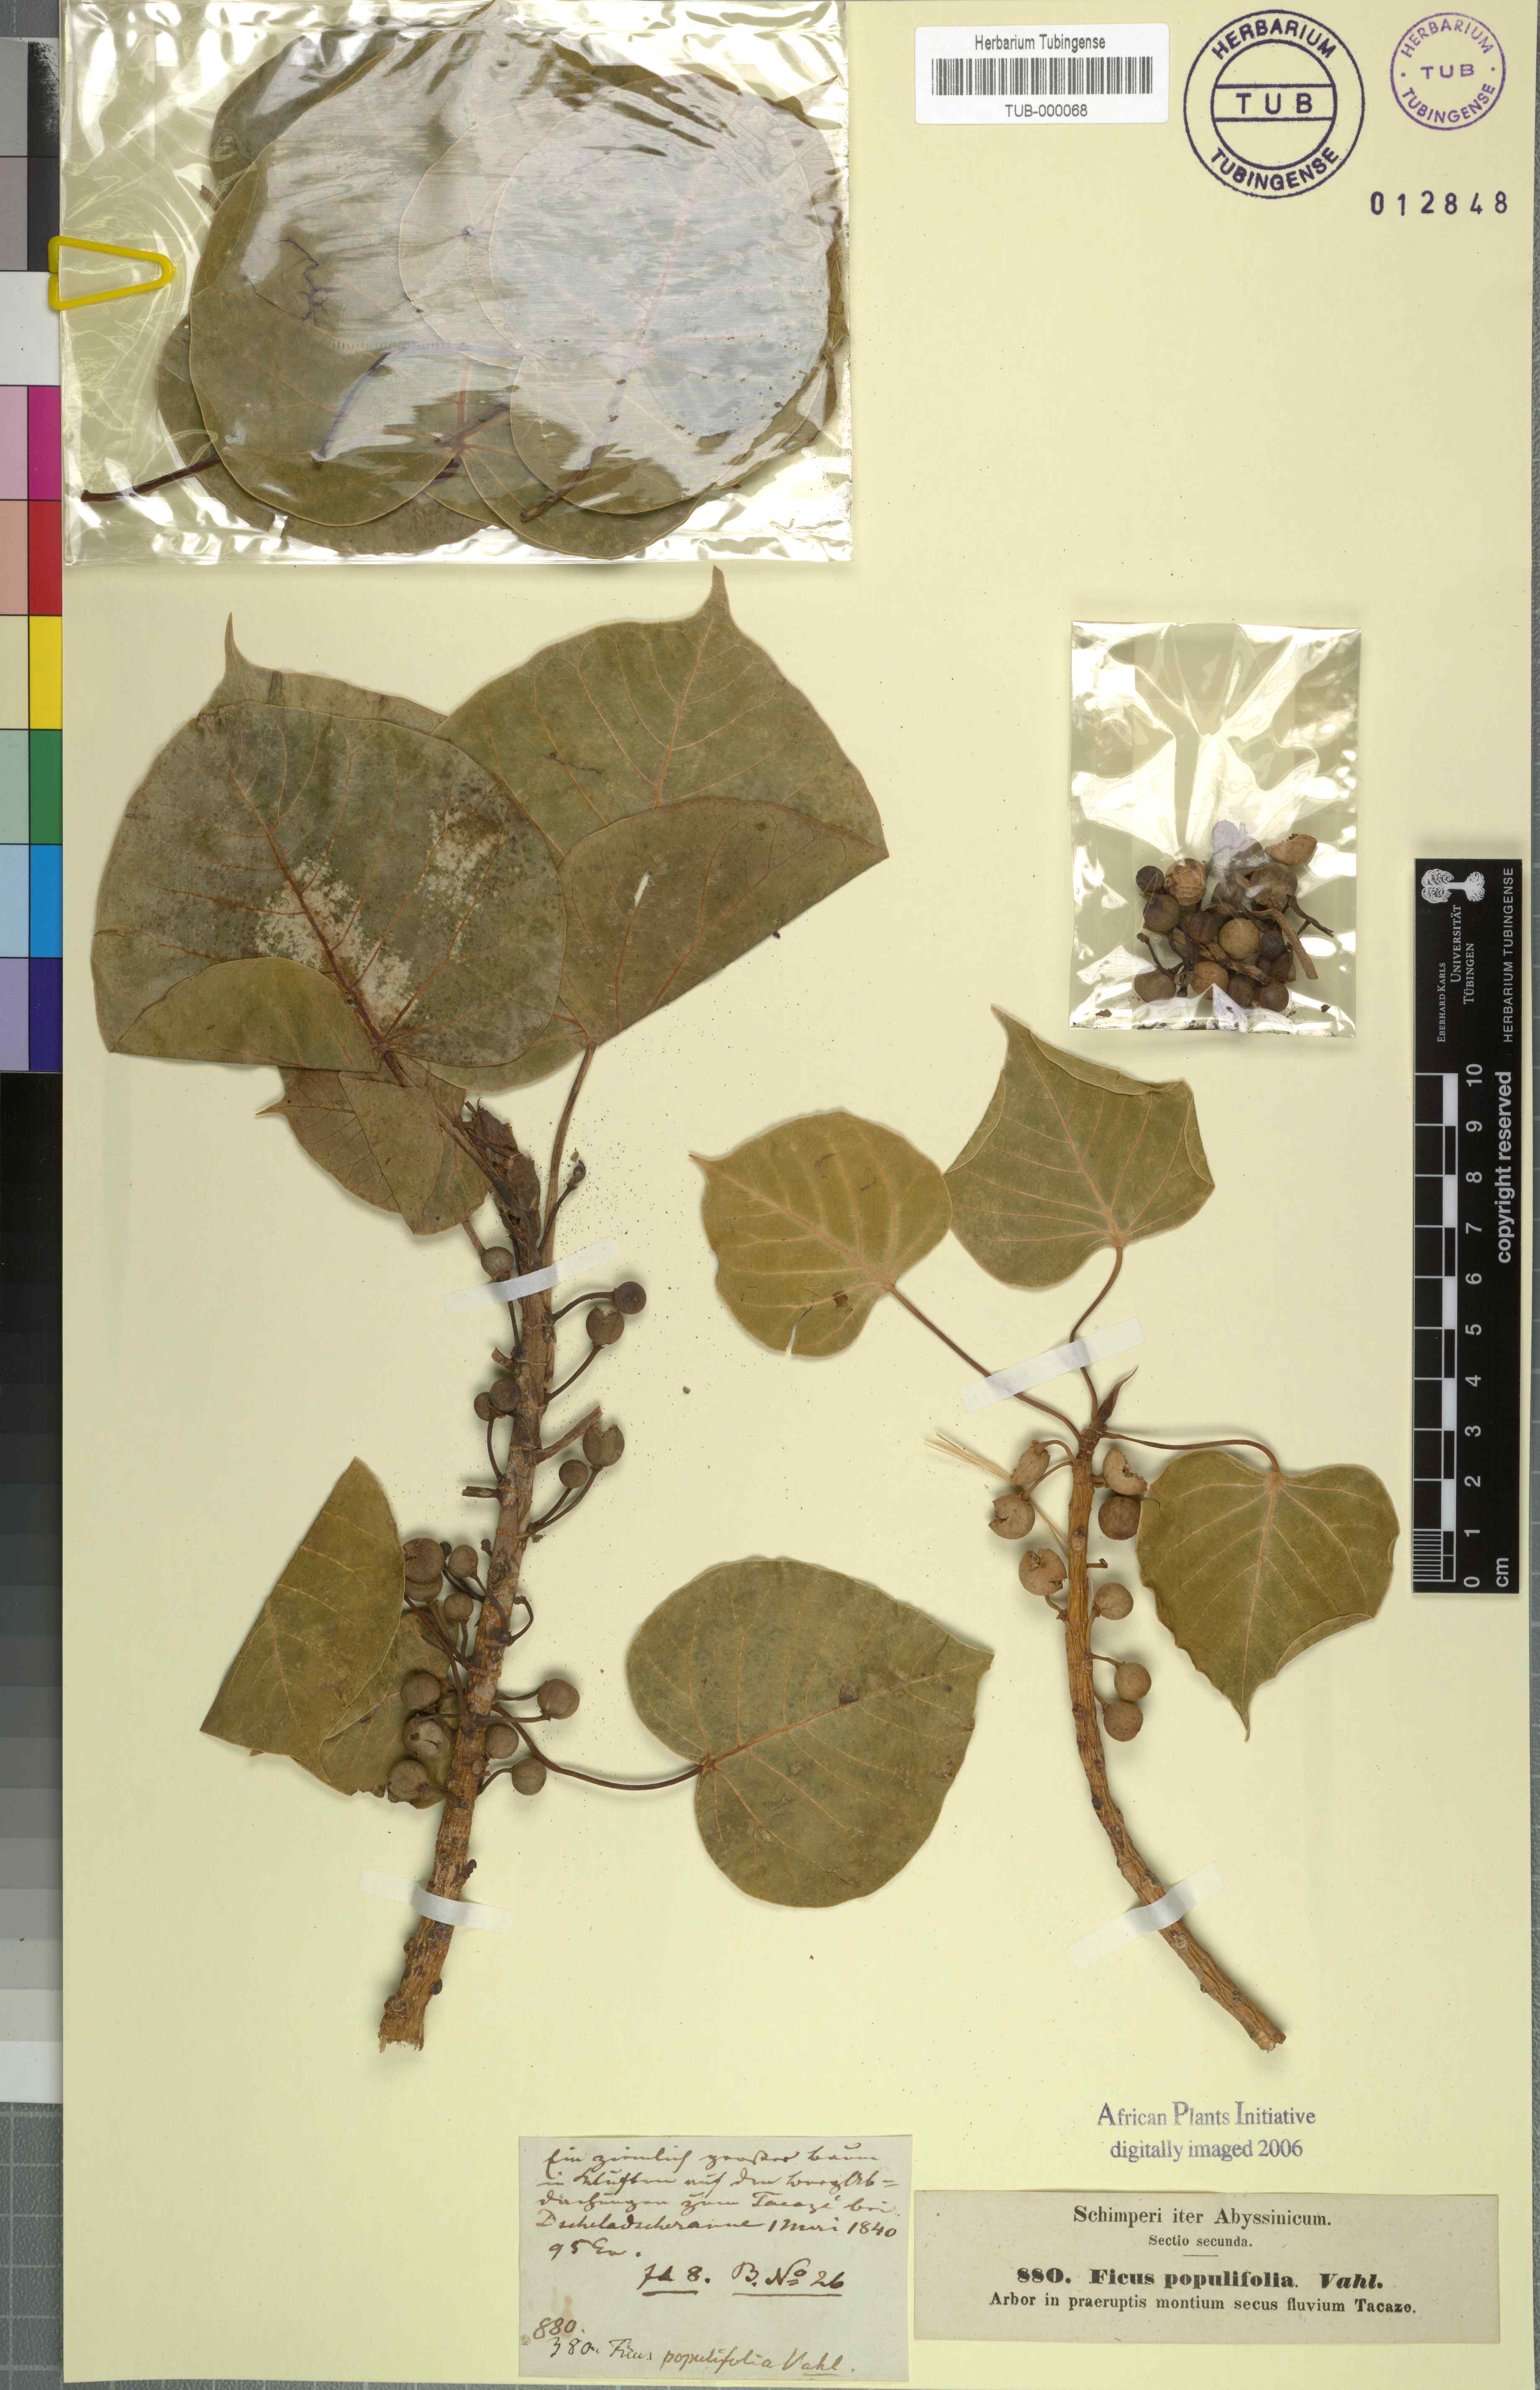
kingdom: Plantae
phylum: Tracheophyta
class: Magnoliopsida
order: Rosales
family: Moraceae
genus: Ficus
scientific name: Ficus populifolia
